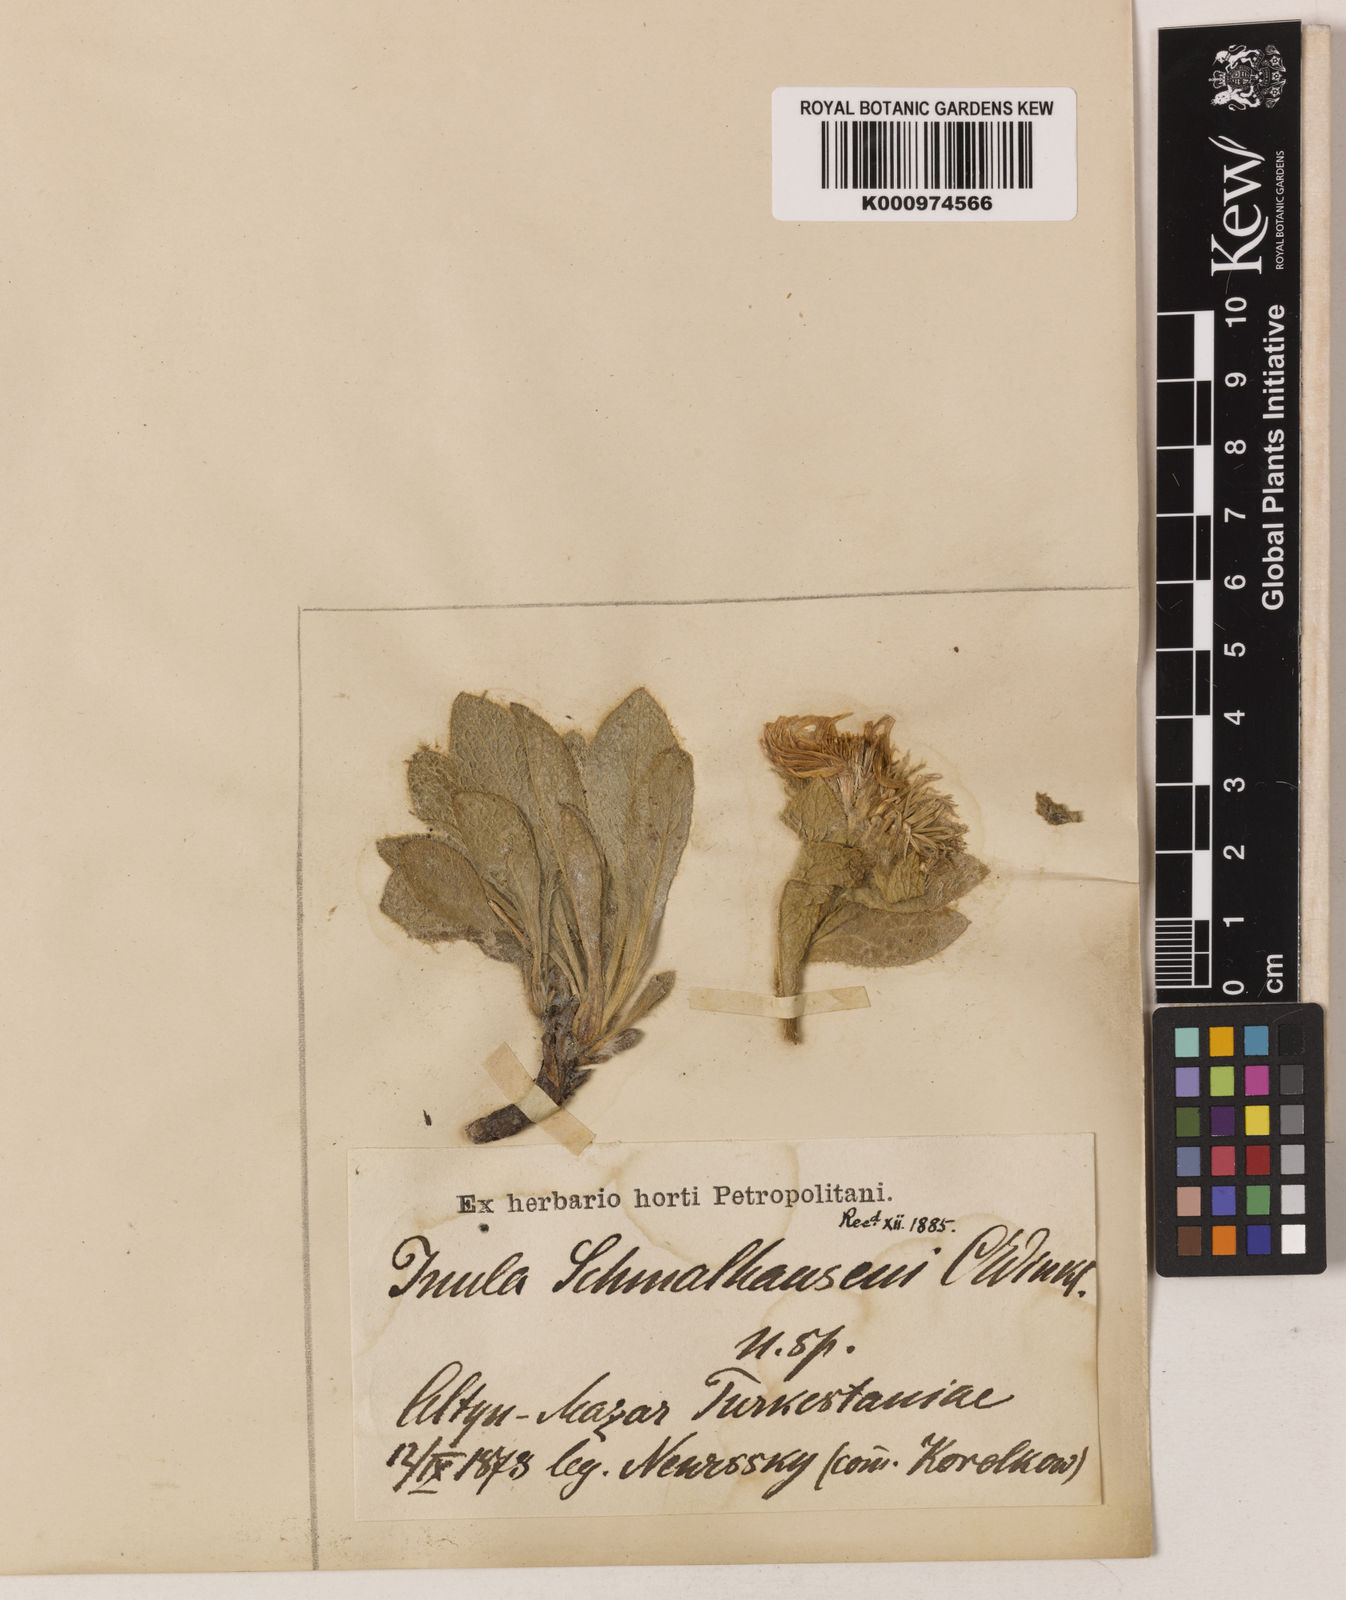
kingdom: Plantae
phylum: Tracheophyta
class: Magnoliopsida
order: Asterales
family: Asteraceae
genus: Inula
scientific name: Inula schmalhausenii
